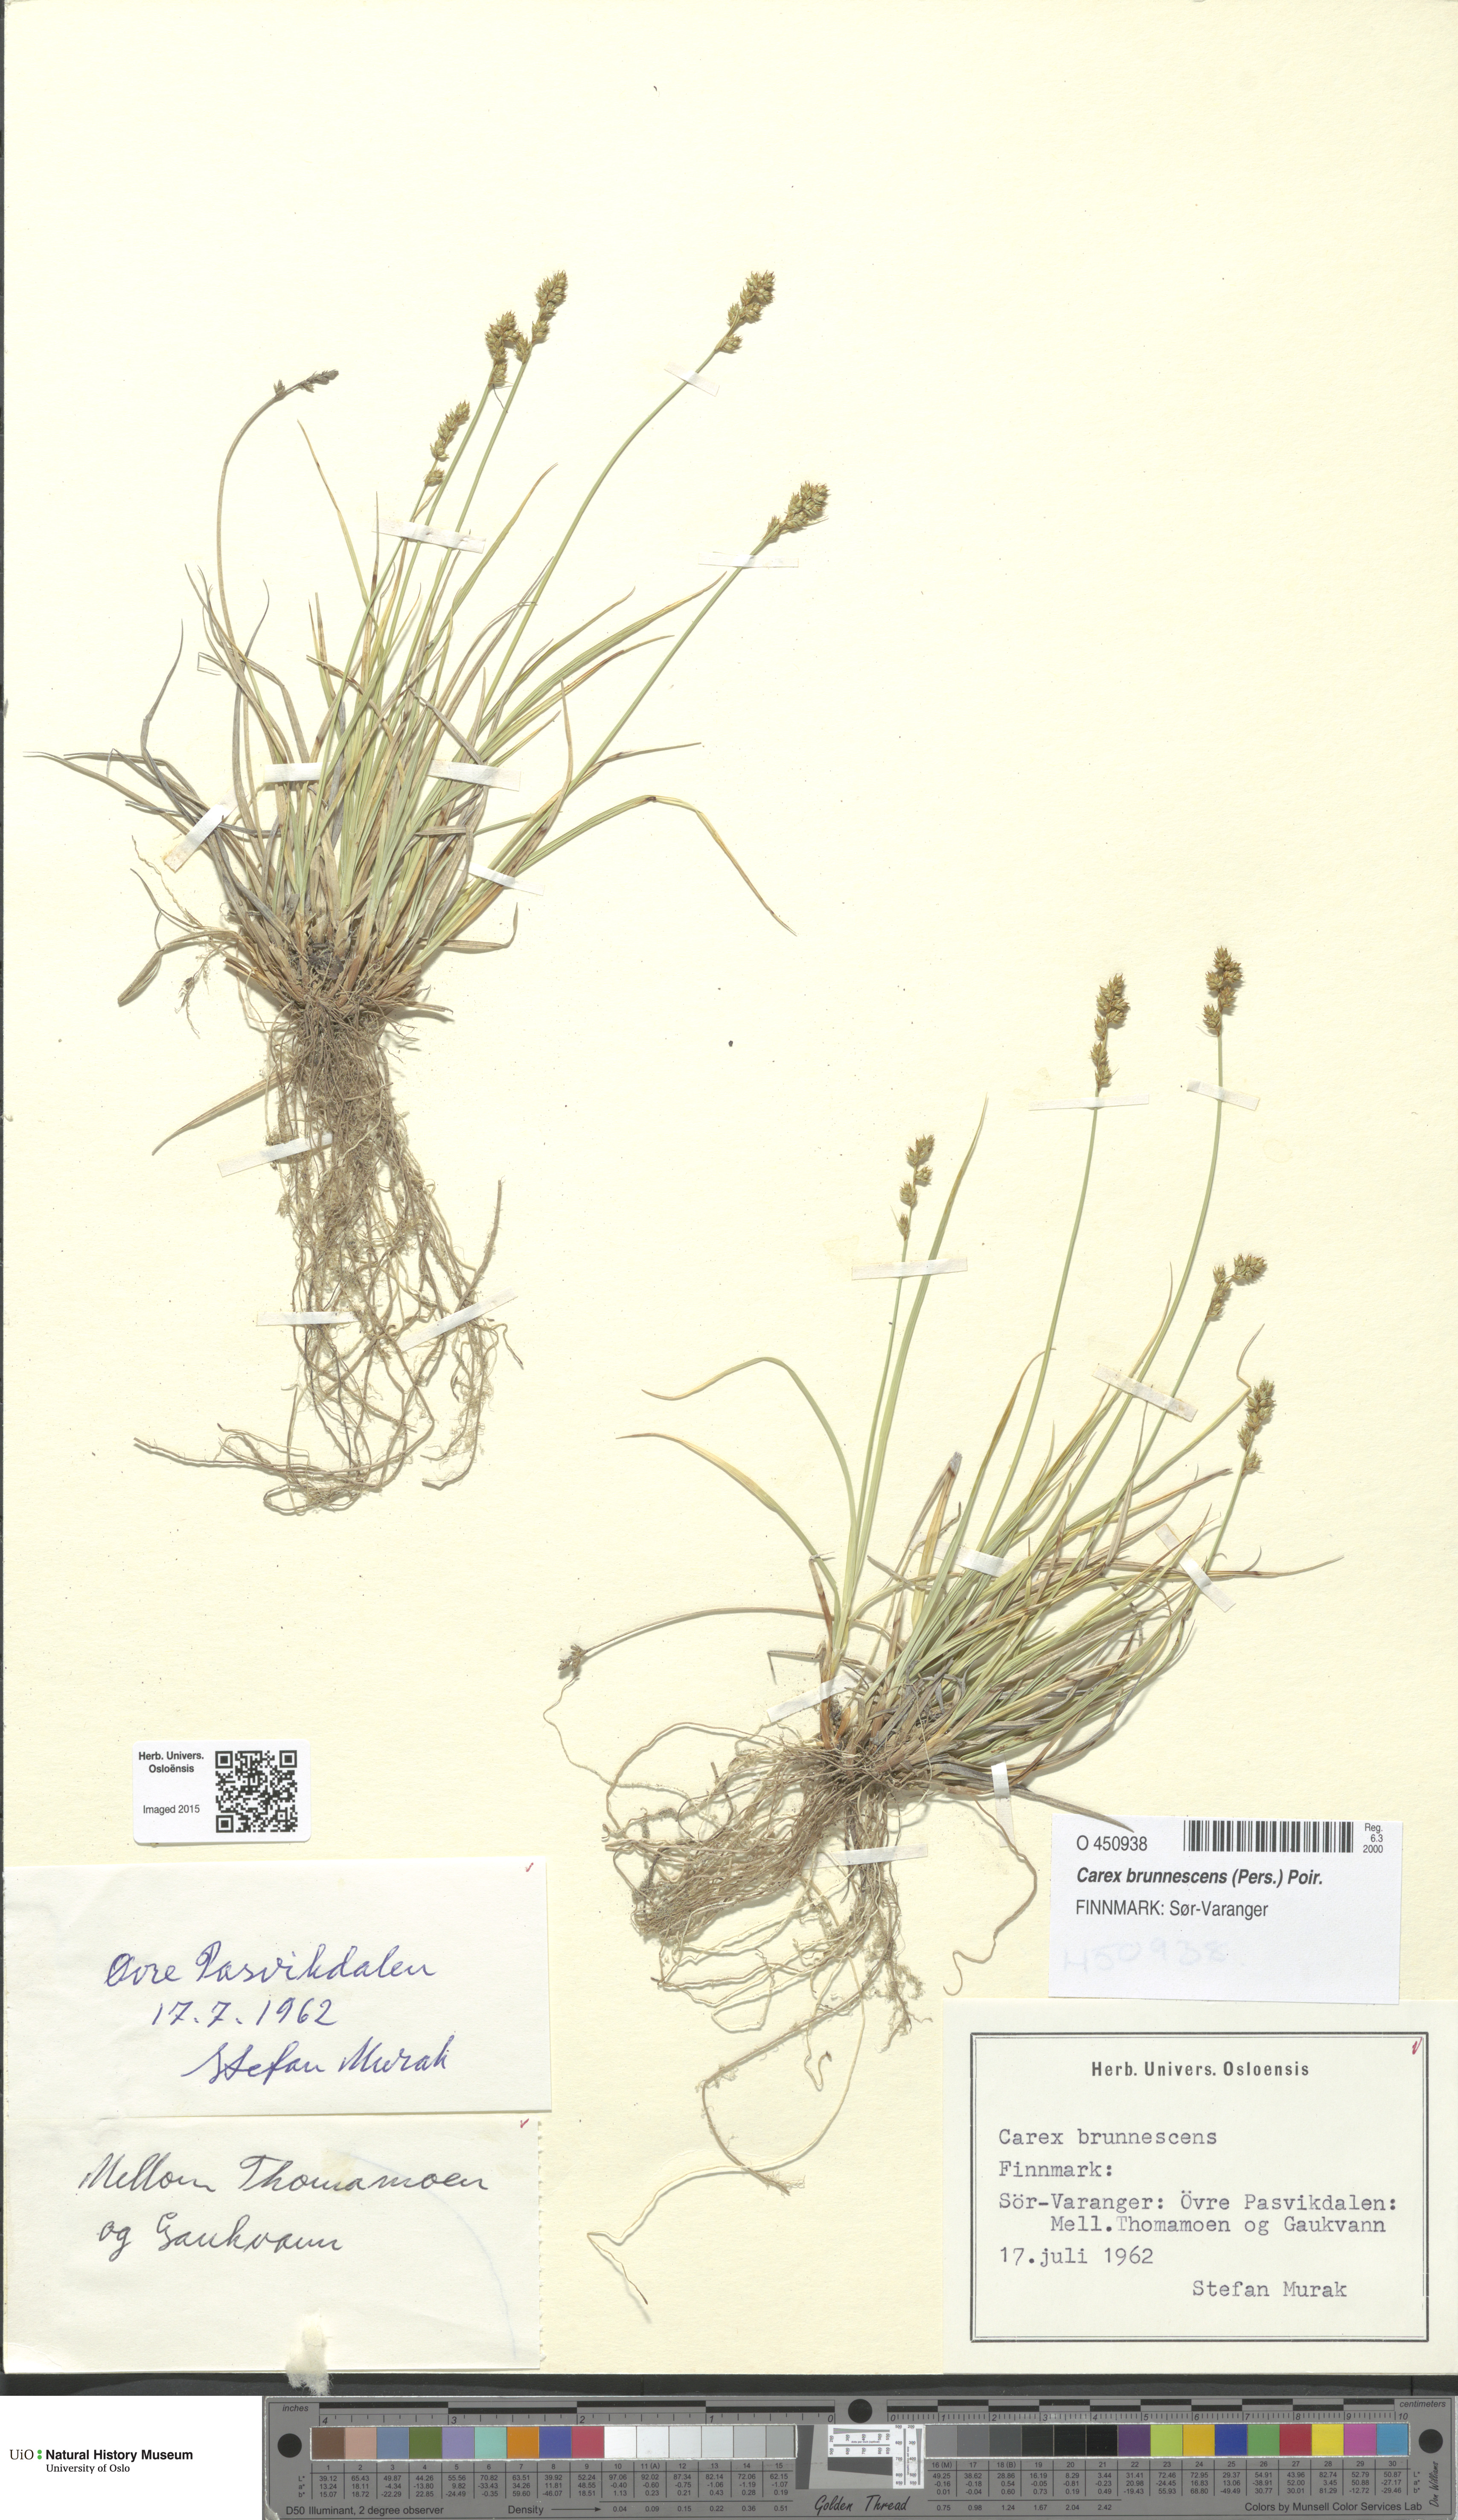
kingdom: Plantae
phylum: Tracheophyta
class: Liliopsida
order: Poales
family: Cyperaceae
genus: Carex
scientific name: Carex brunnescens
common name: Brown sedge
